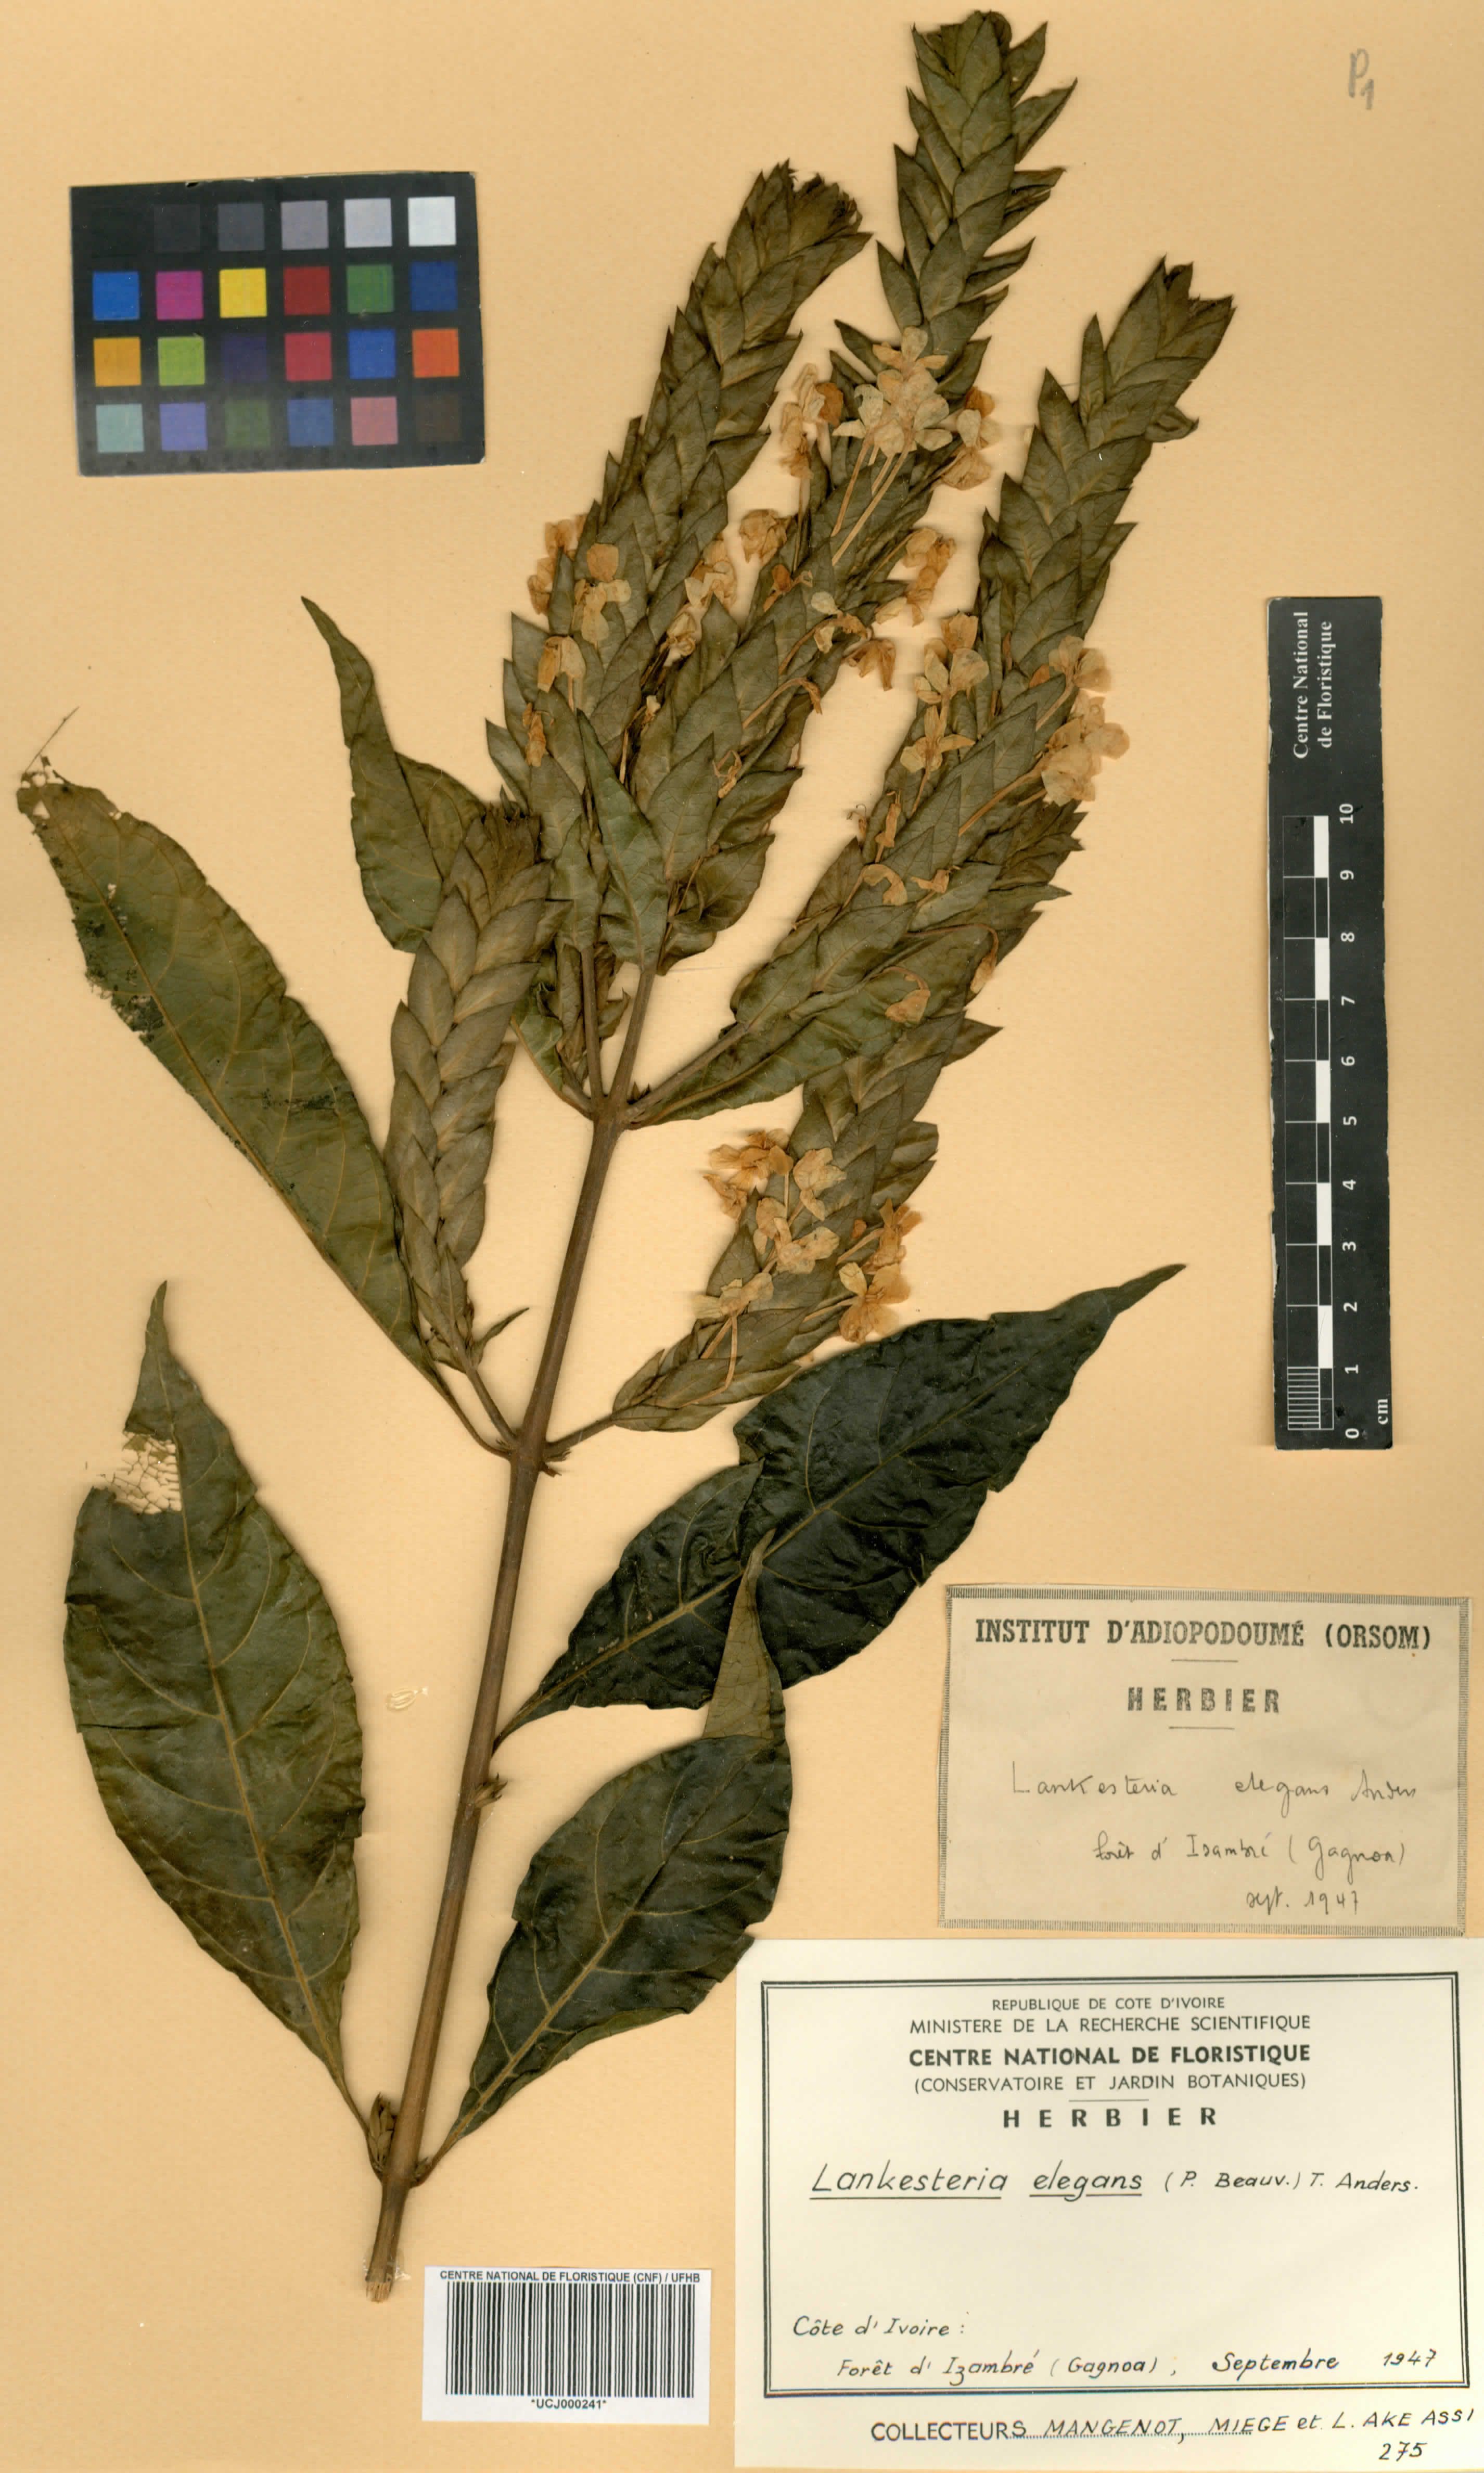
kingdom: Plantae
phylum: Tracheophyta
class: Magnoliopsida
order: Lamiales
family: Acanthaceae
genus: Lankesteria
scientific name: Lankesteria elegans
